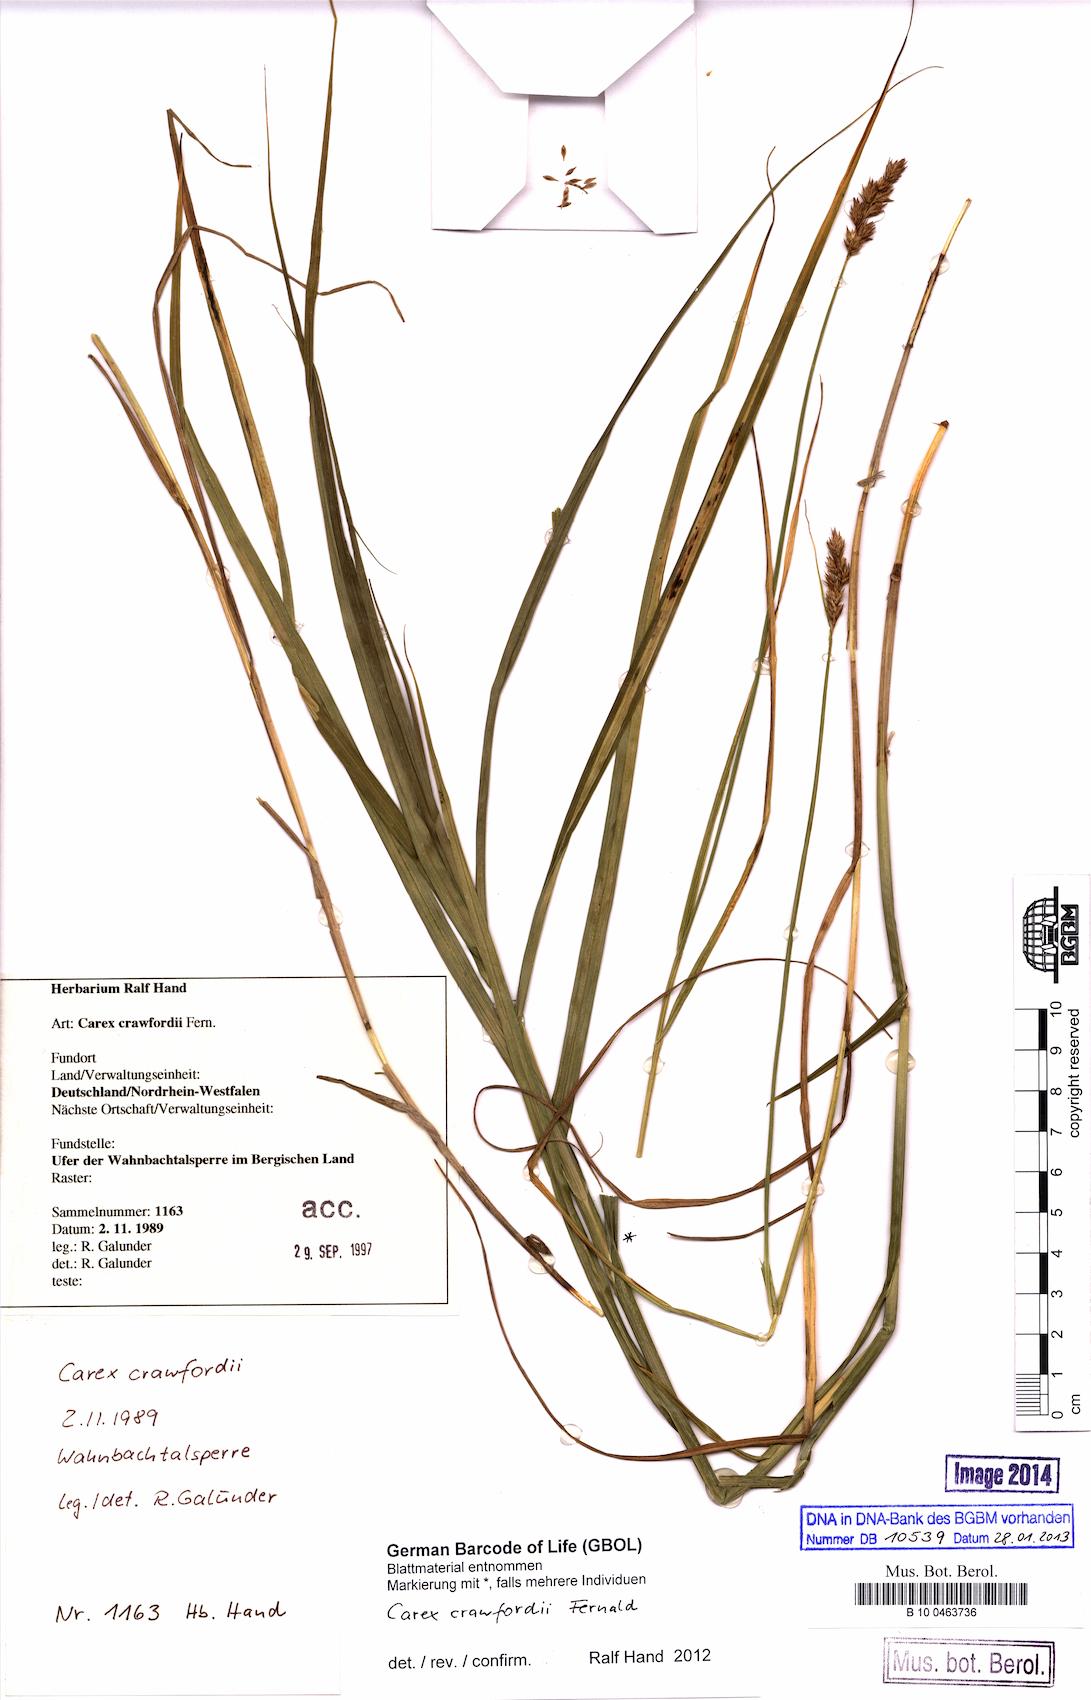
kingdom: Plantae
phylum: Tracheophyta
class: Liliopsida
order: Poales
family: Cyperaceae
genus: Carex
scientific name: Carex crawfordii
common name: Crawford's sedge
